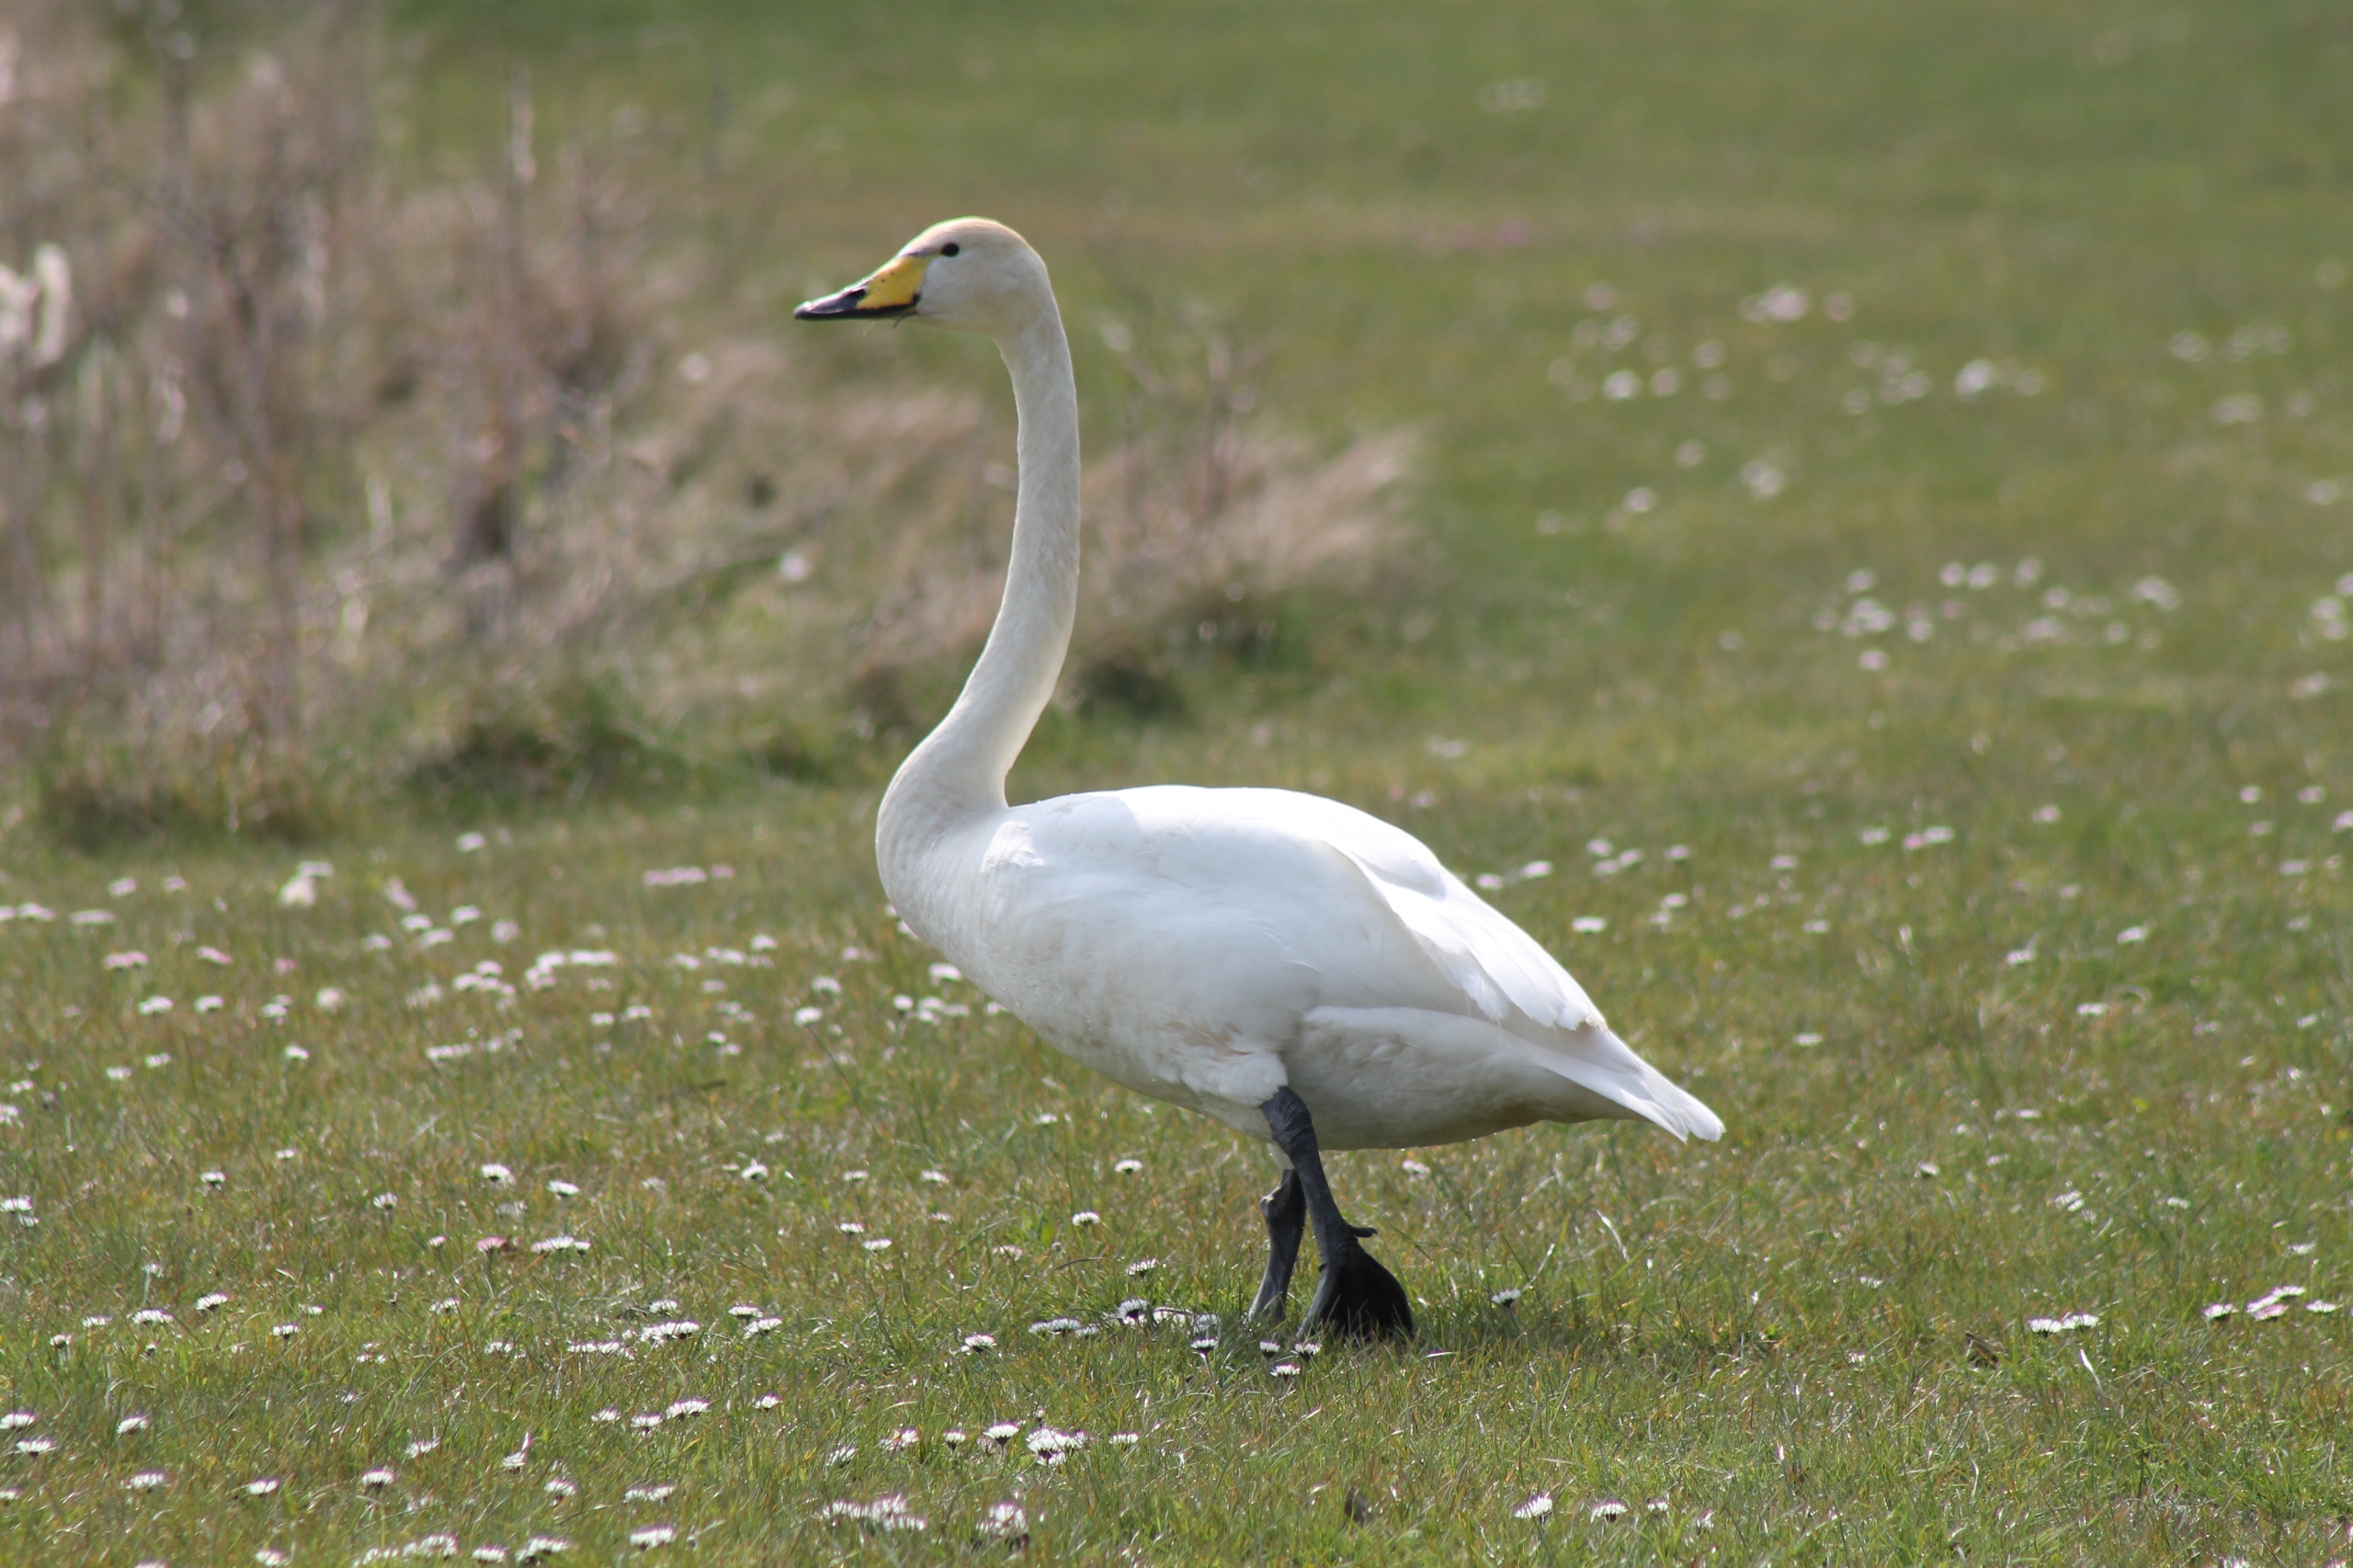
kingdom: Animalia
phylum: Chordata
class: Aves
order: Anseriformes
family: Anatidae
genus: Cygnus
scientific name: Cygnus cygnus
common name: Sangsvane
